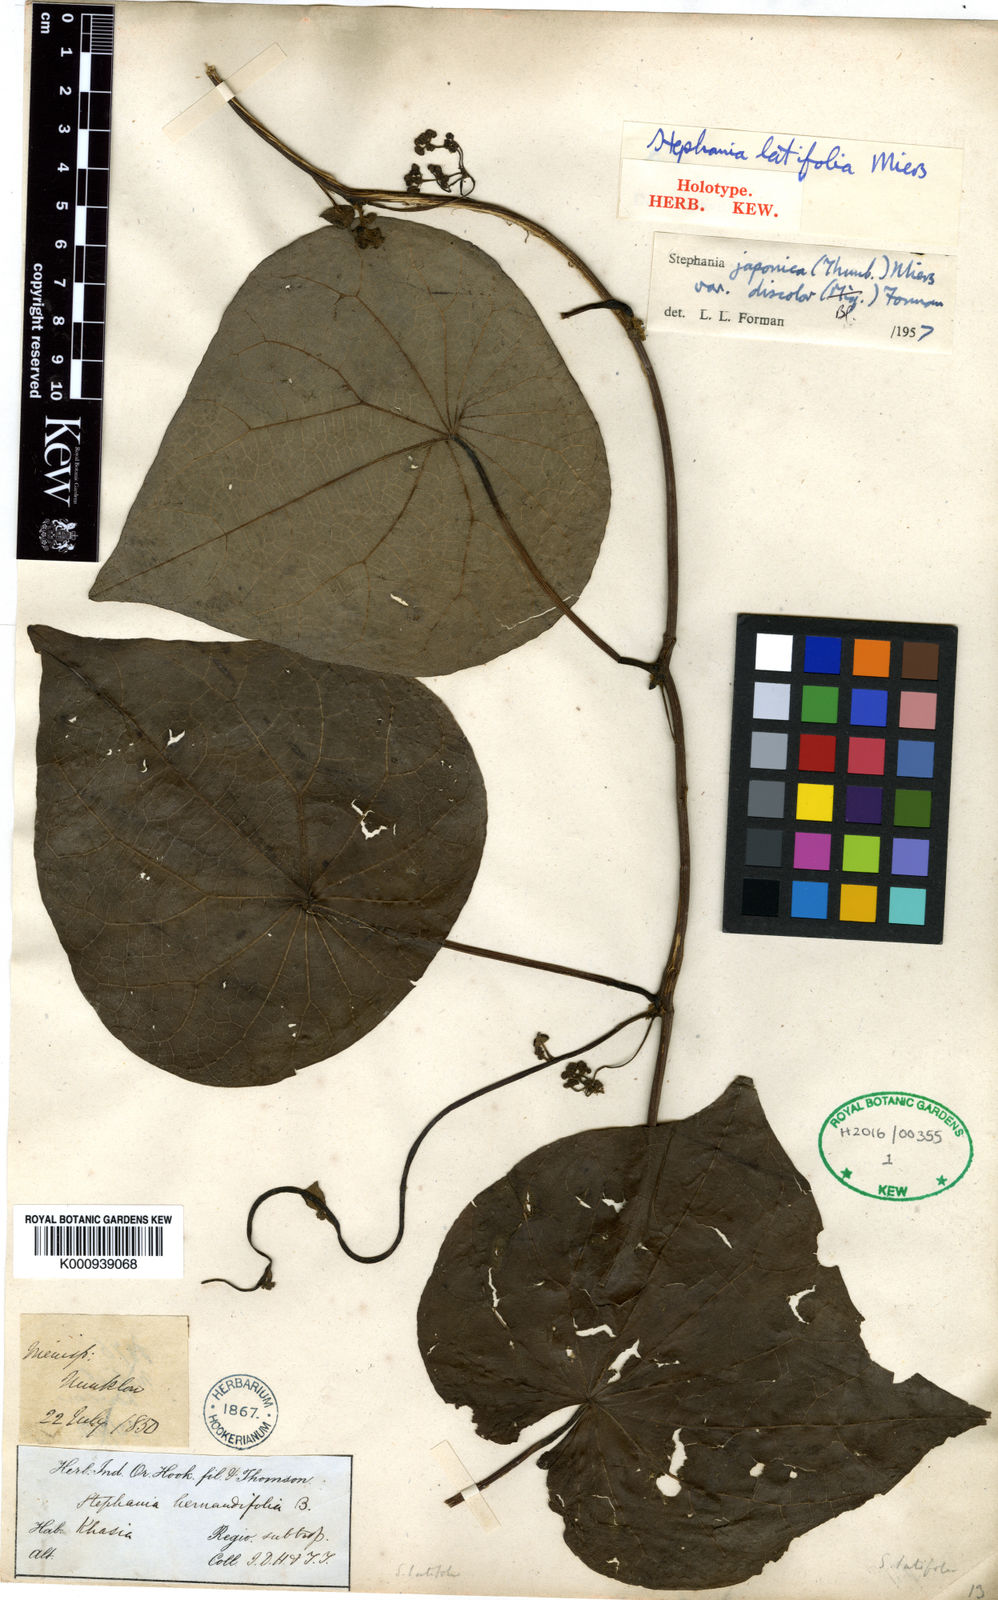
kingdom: Plantae
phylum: Tracheophyta
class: Magnoliopsida
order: Ranunculales
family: Menispermaceae
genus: Stephania
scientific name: Stephania japonica
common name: Snake vine
